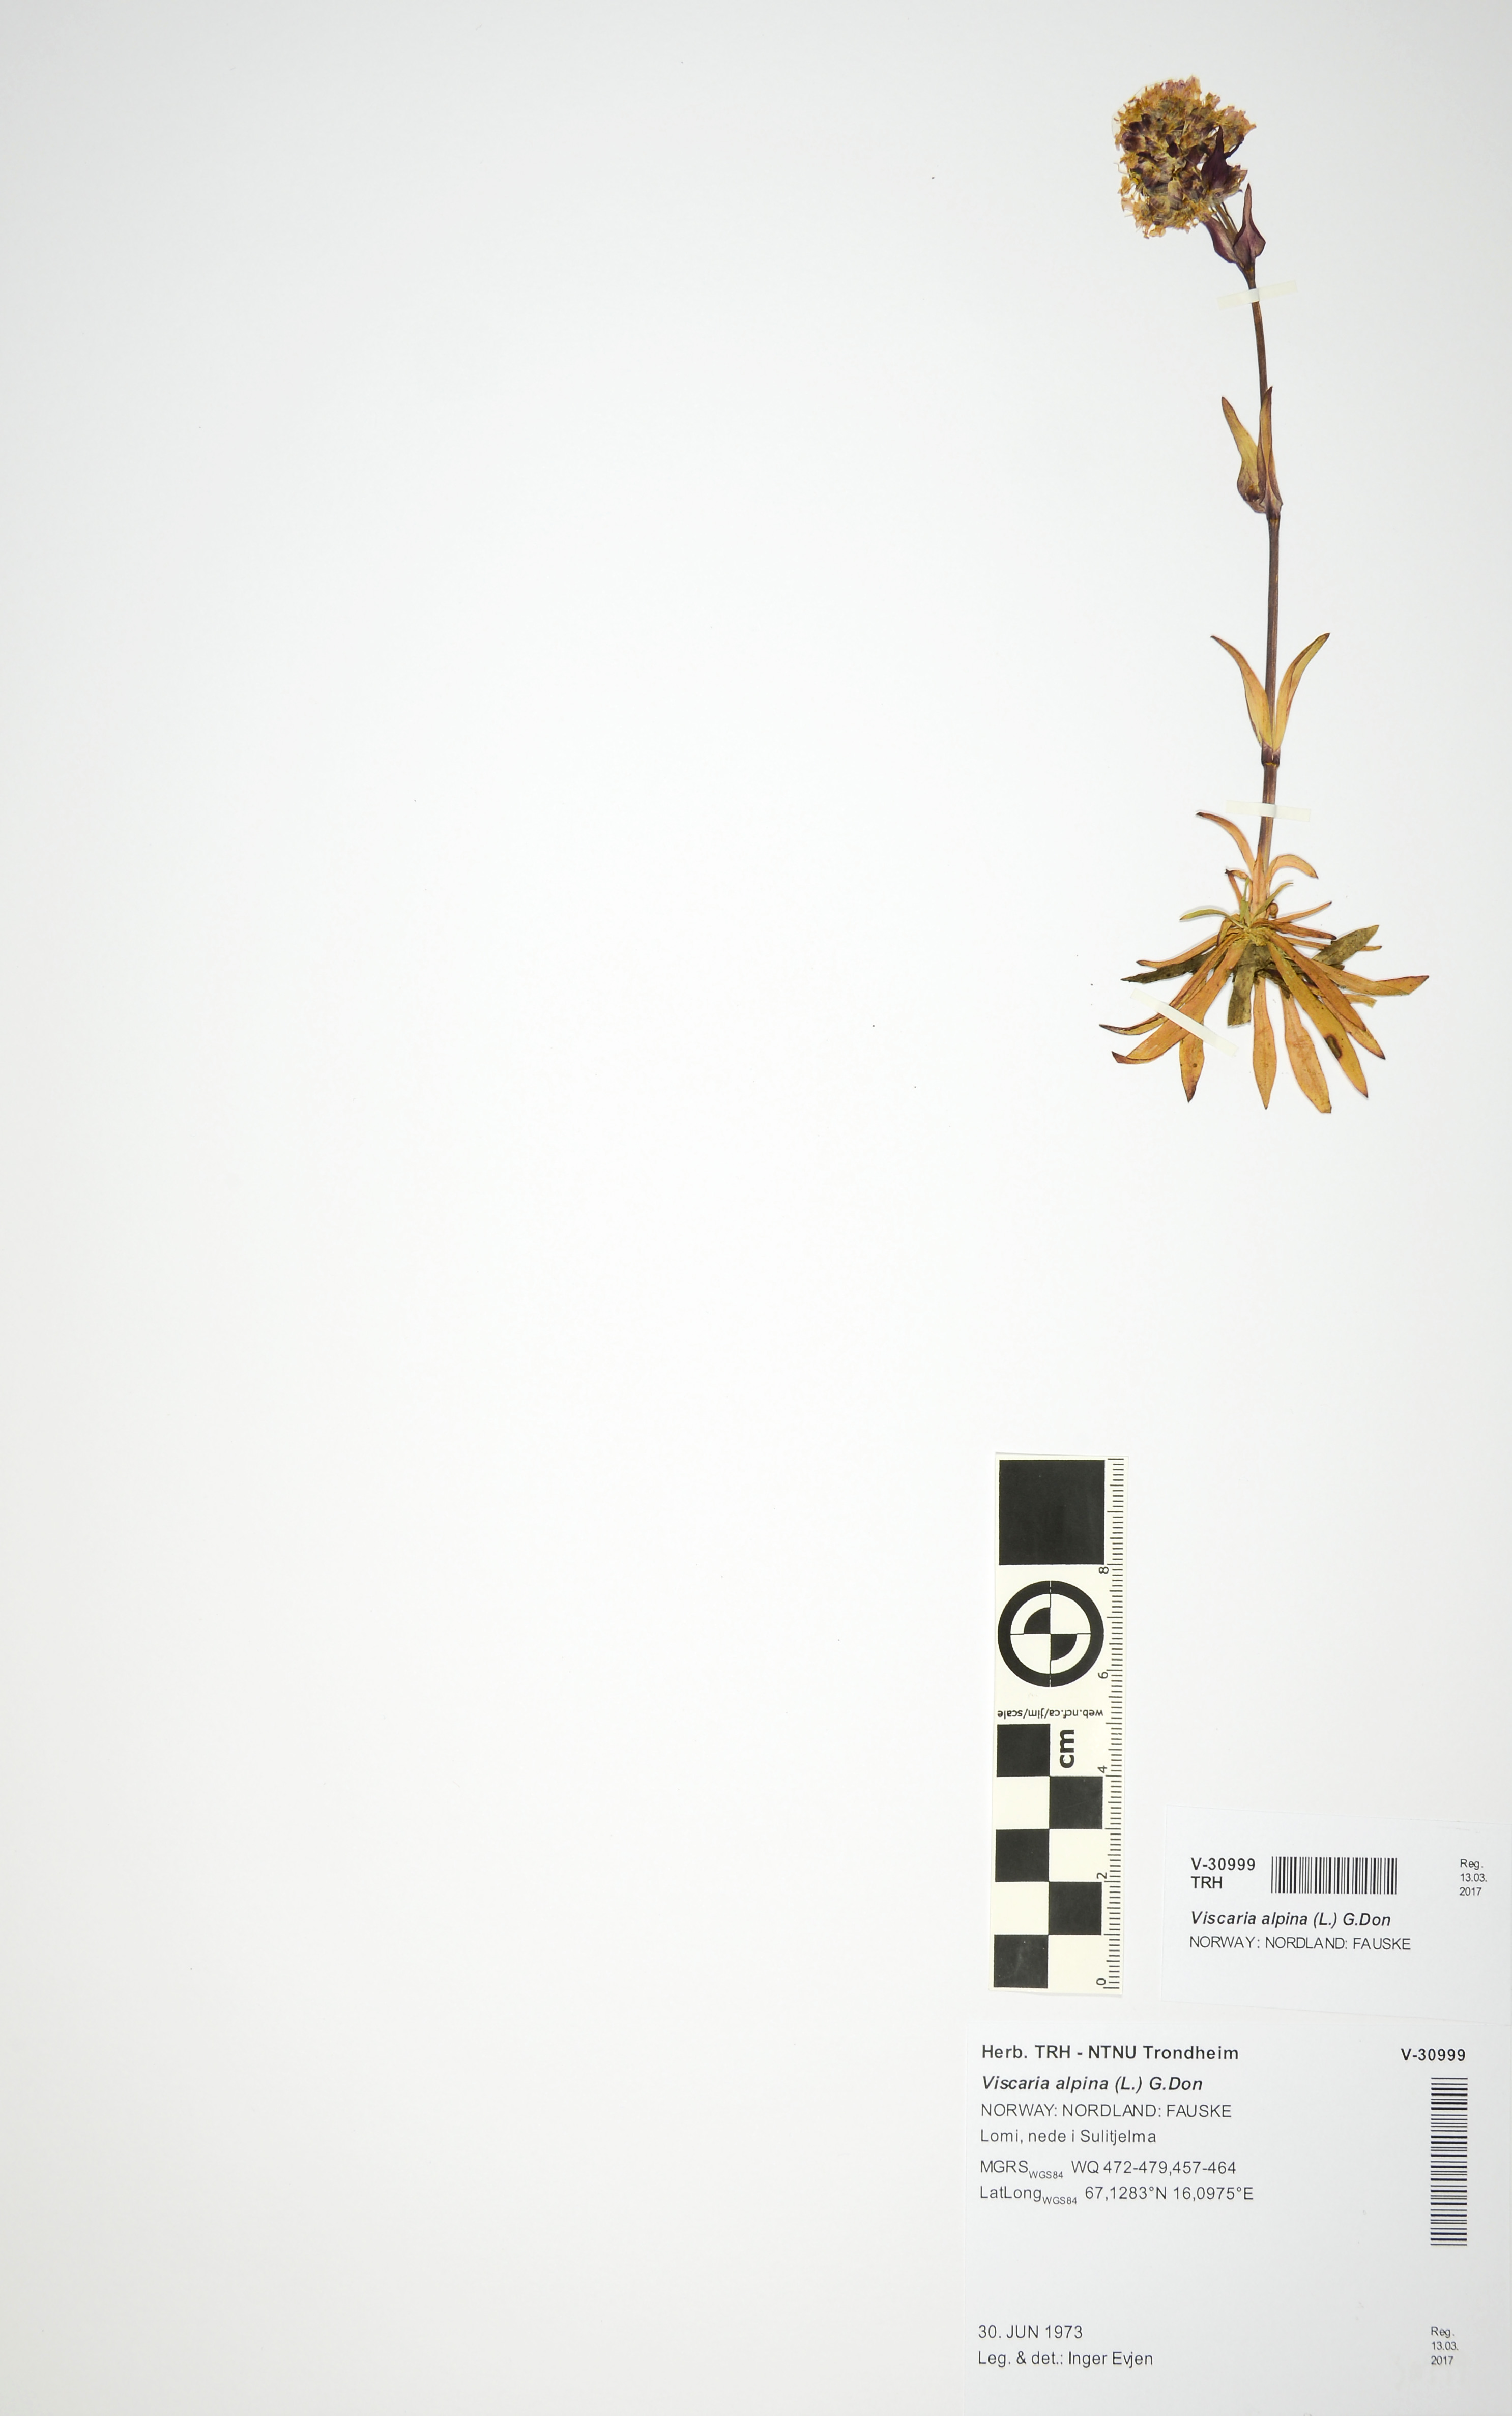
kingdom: Plantae
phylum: Tracheophyta
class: Magnoliopsida
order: Caryophyllales
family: Caryophyllaceae
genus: Viscaria
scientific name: Viscaria alpina
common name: Alpine campion
